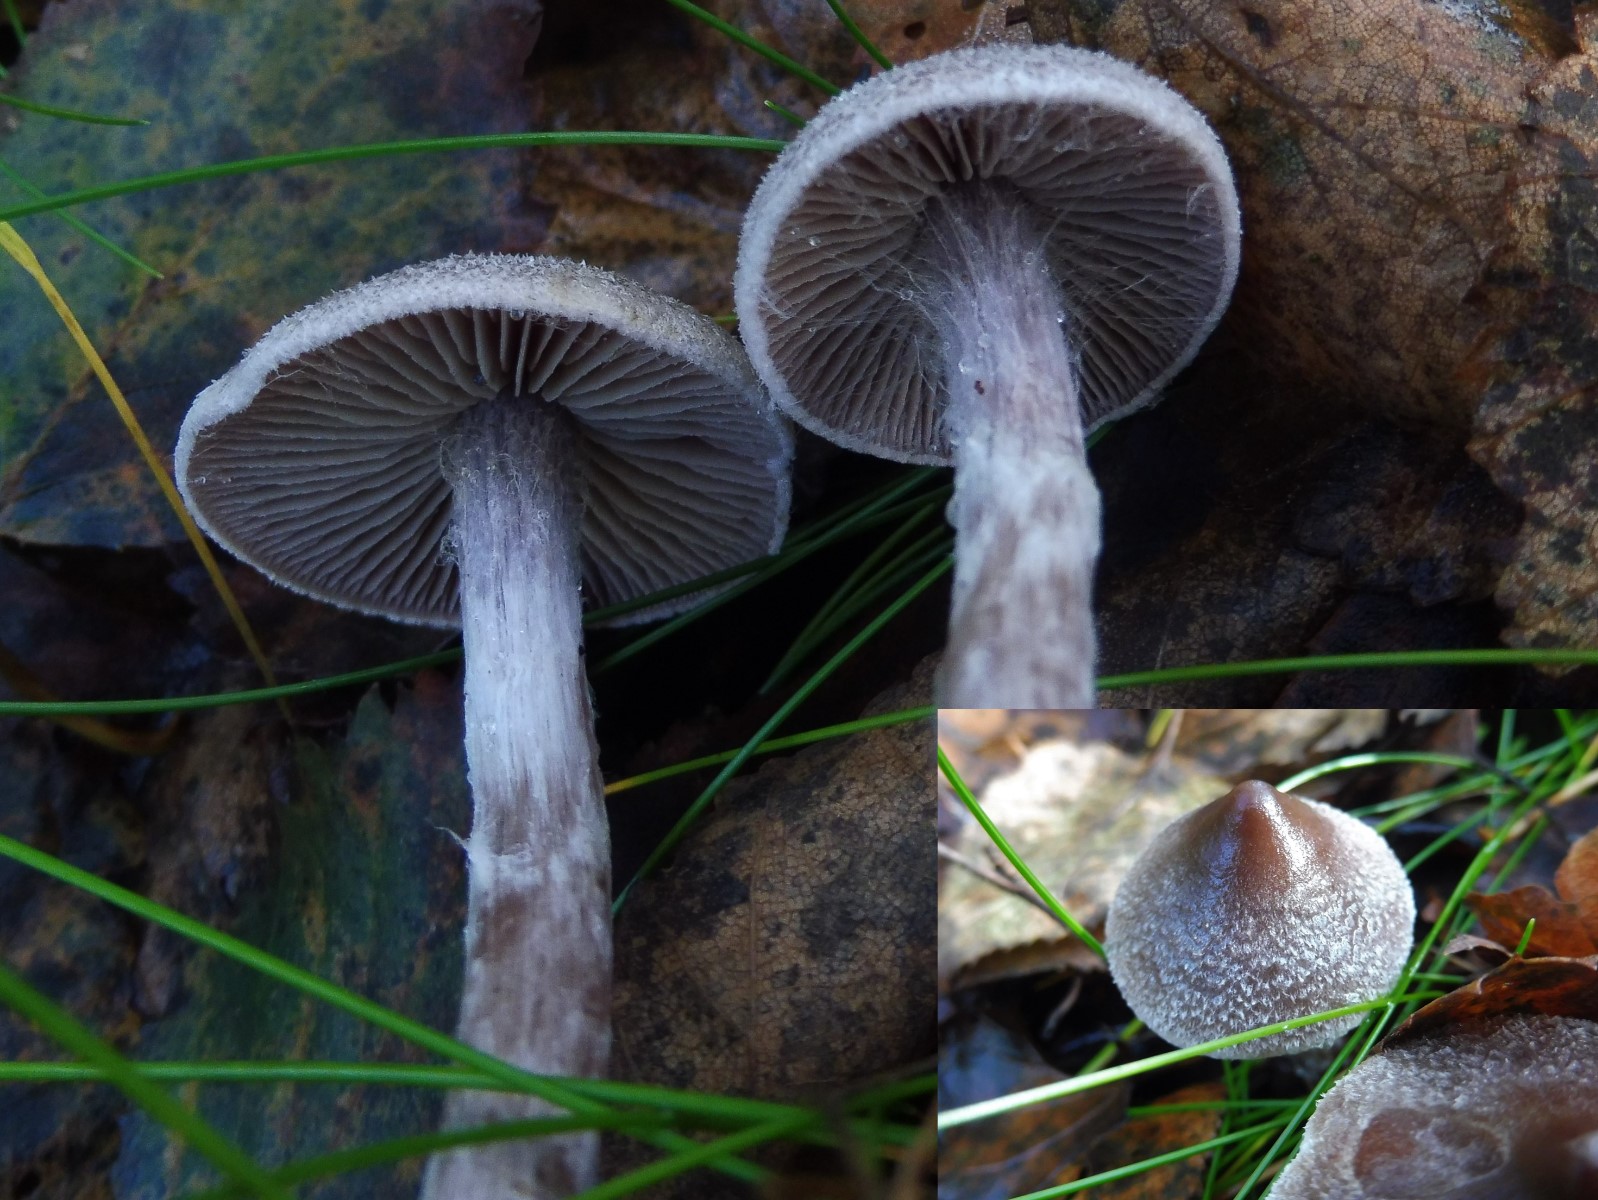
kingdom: Fungi
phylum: Basidiomycota
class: Agaricomycetes
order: Agaricales
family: Cortinariaceae
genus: Cortinarius
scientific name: Cortinarius hemitrichus
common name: hvidfnugget slørhat
